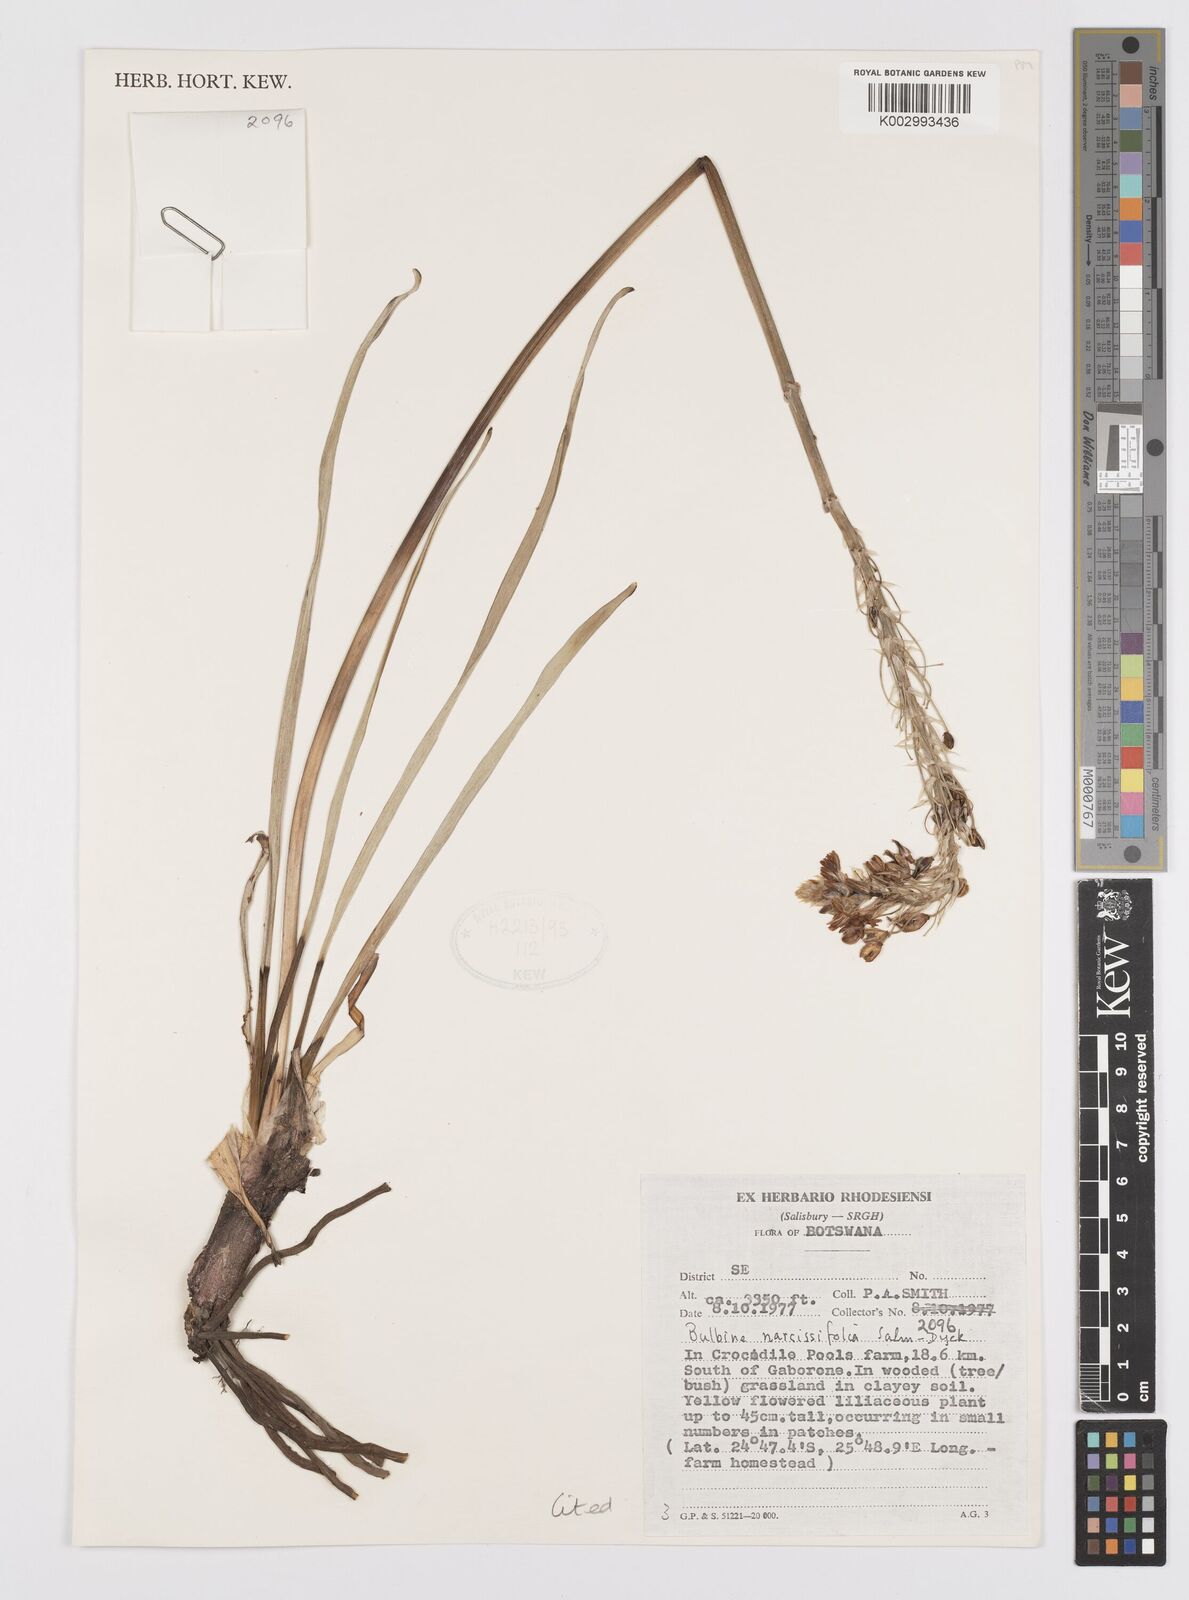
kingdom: Plantae
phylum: Tracheophyta
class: Liliopsida
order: Asparagales
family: Asphodelaceae
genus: Bulbine
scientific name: Bulbine narcissifolia
